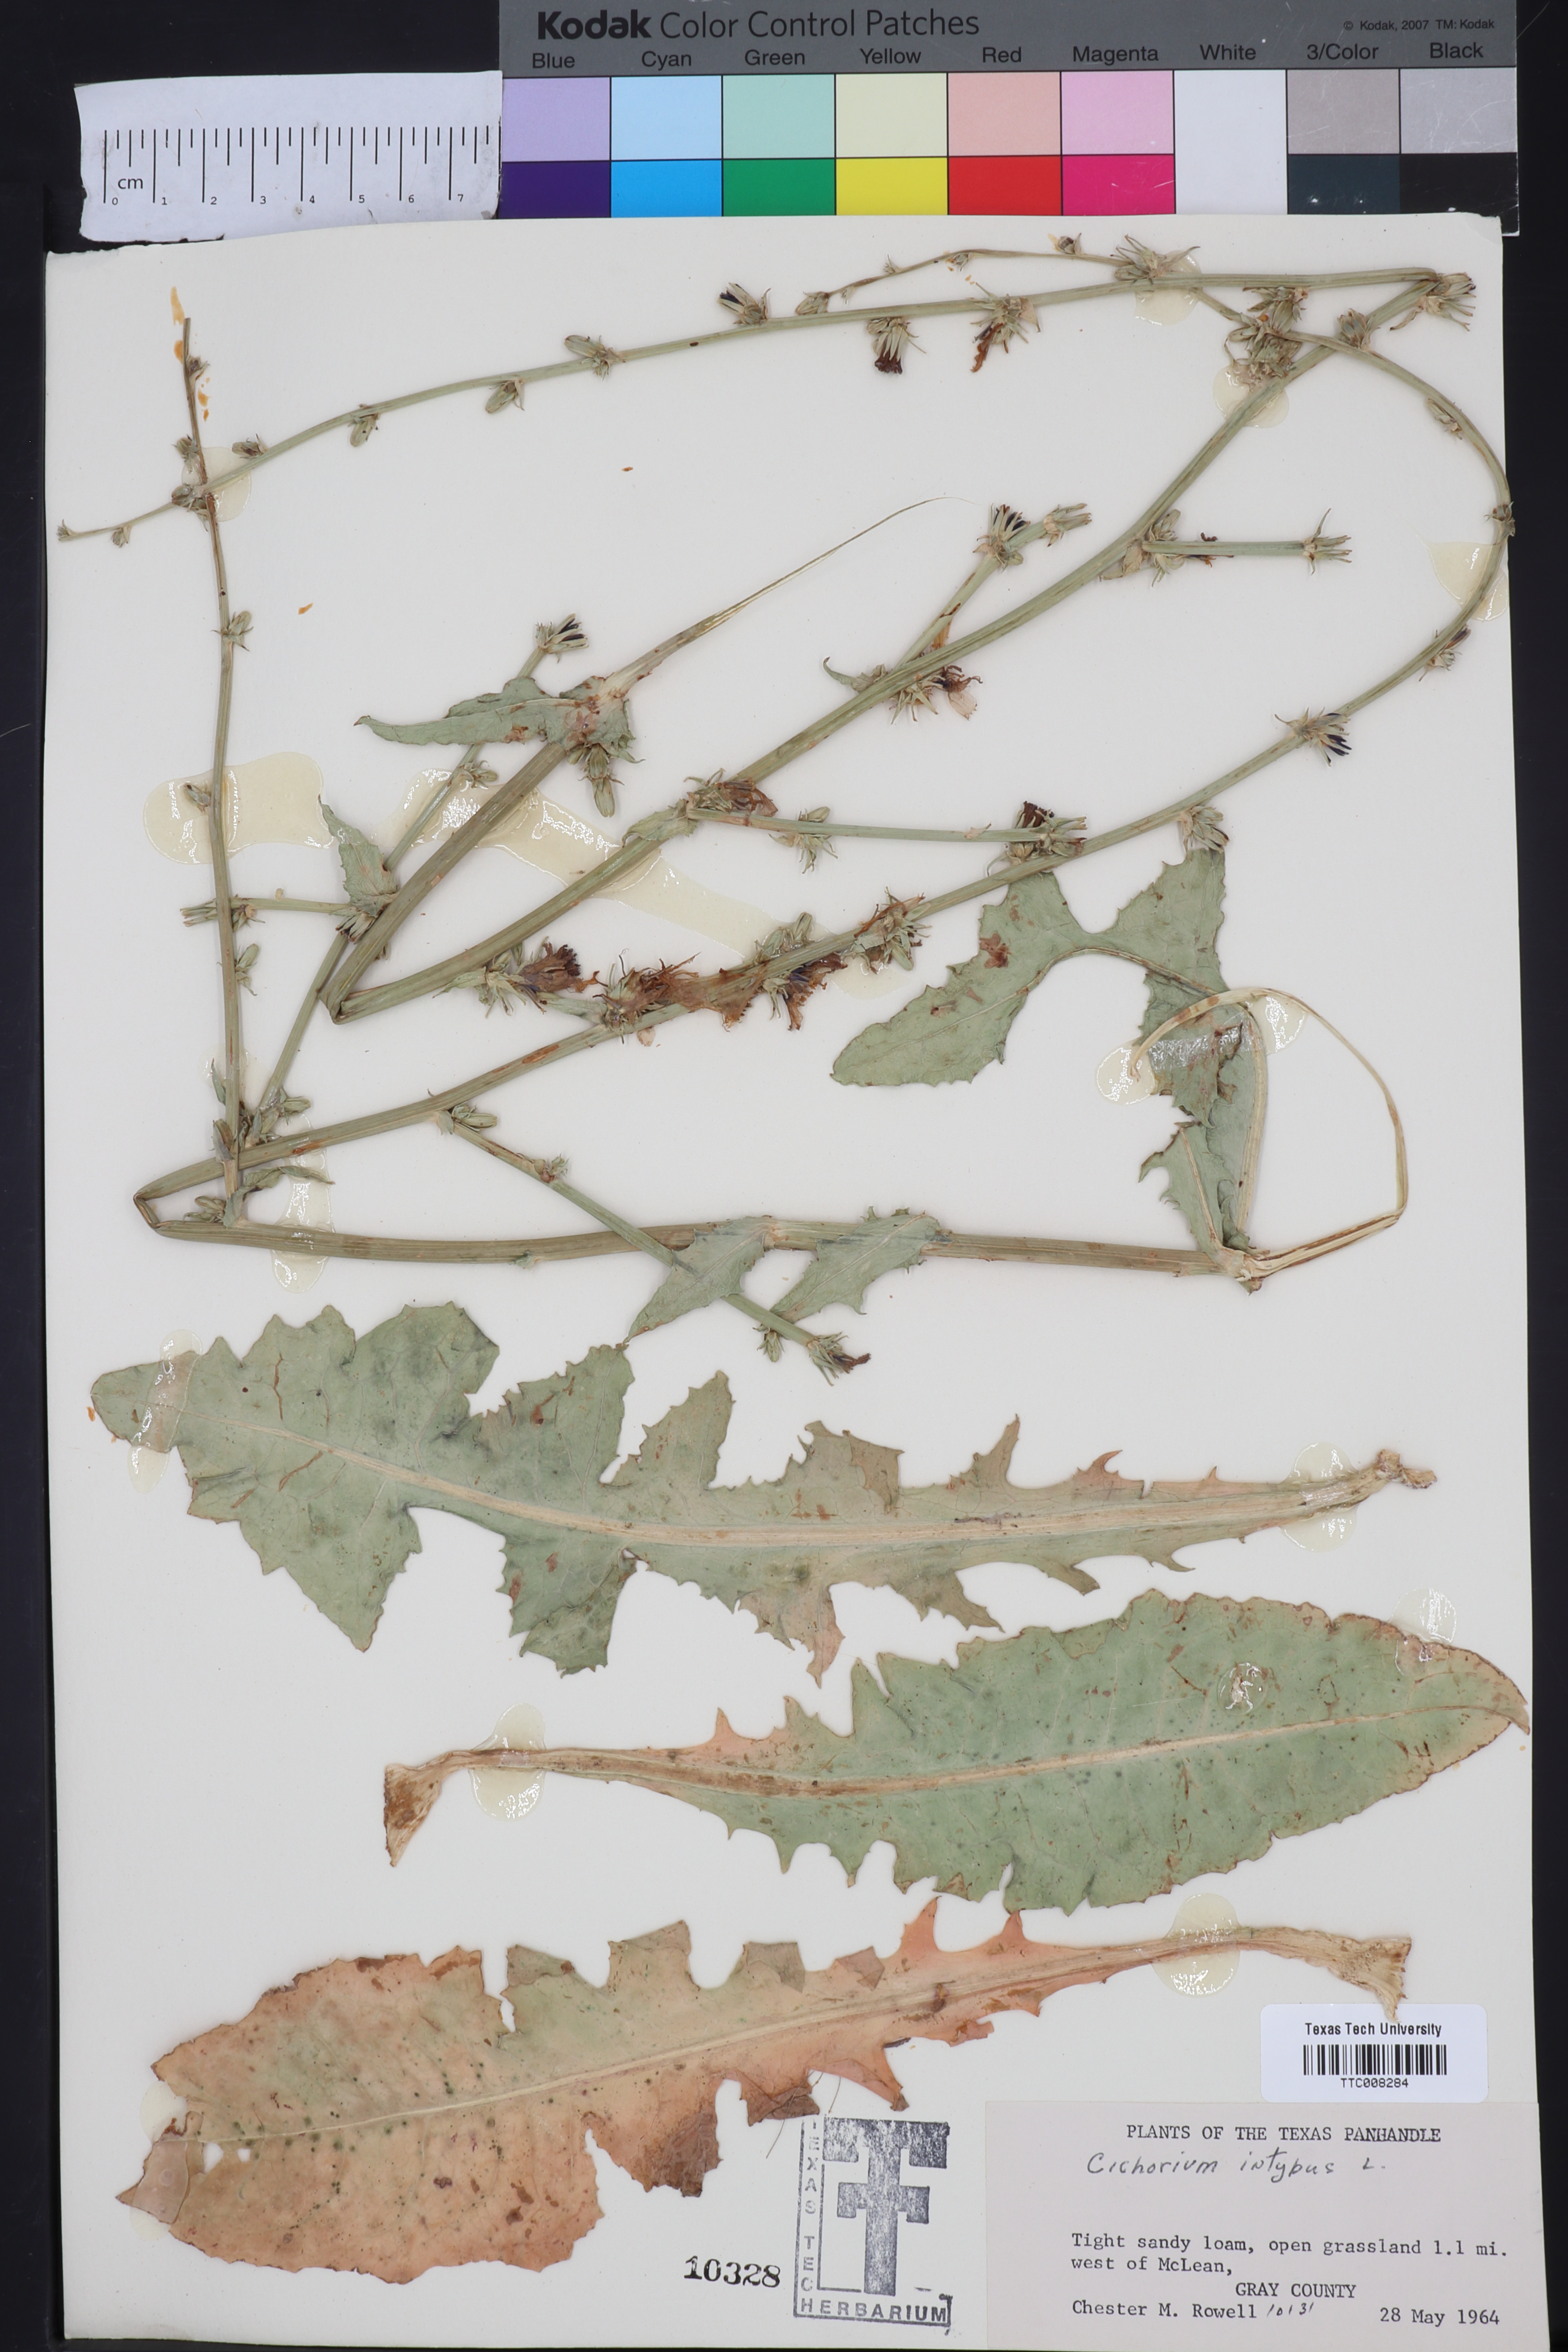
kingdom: Plantae
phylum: Tracheophyta
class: Magnoliopsida
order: Asterales
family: Asteraceae
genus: Cichorium
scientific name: Cichorium intybus
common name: Chicory
